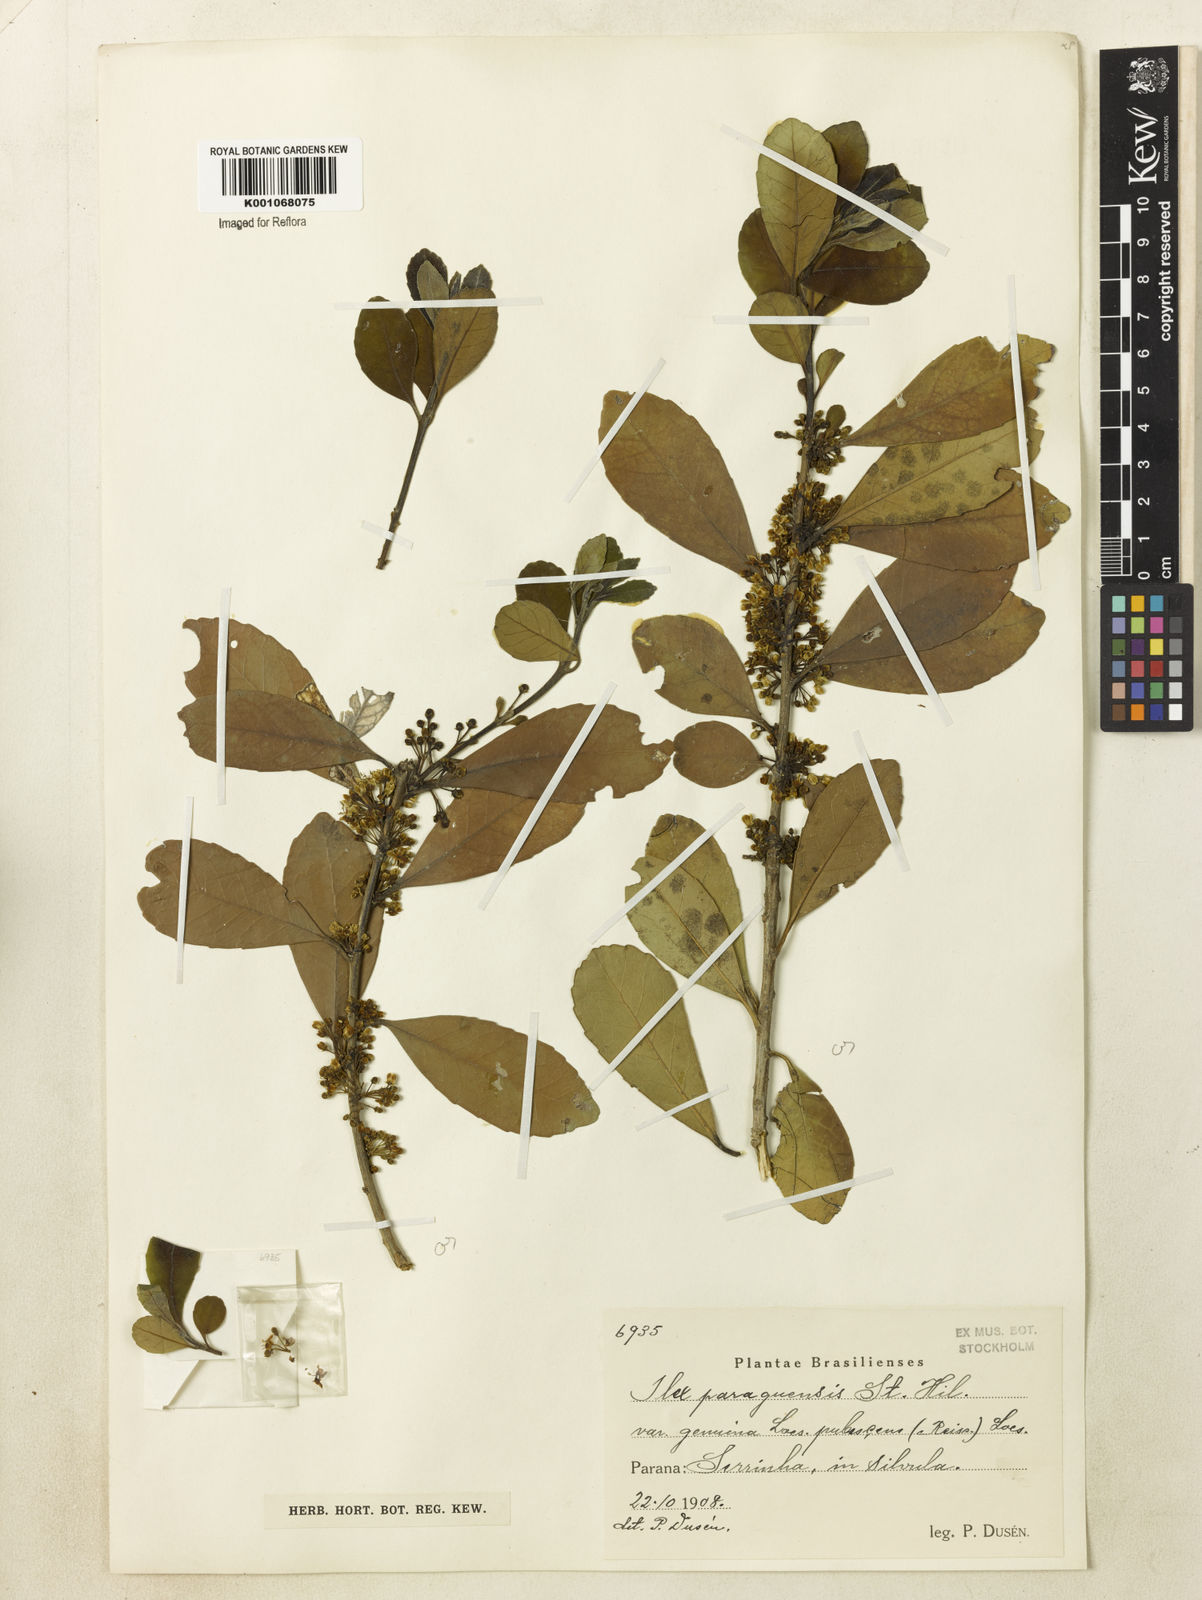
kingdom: Plantae
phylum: Tracheophyta
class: Magnoliopsida
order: Aquifoliales
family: Aquifoliaceae
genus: Ilex
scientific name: Ilex paraguariensis
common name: Paraguay tea
